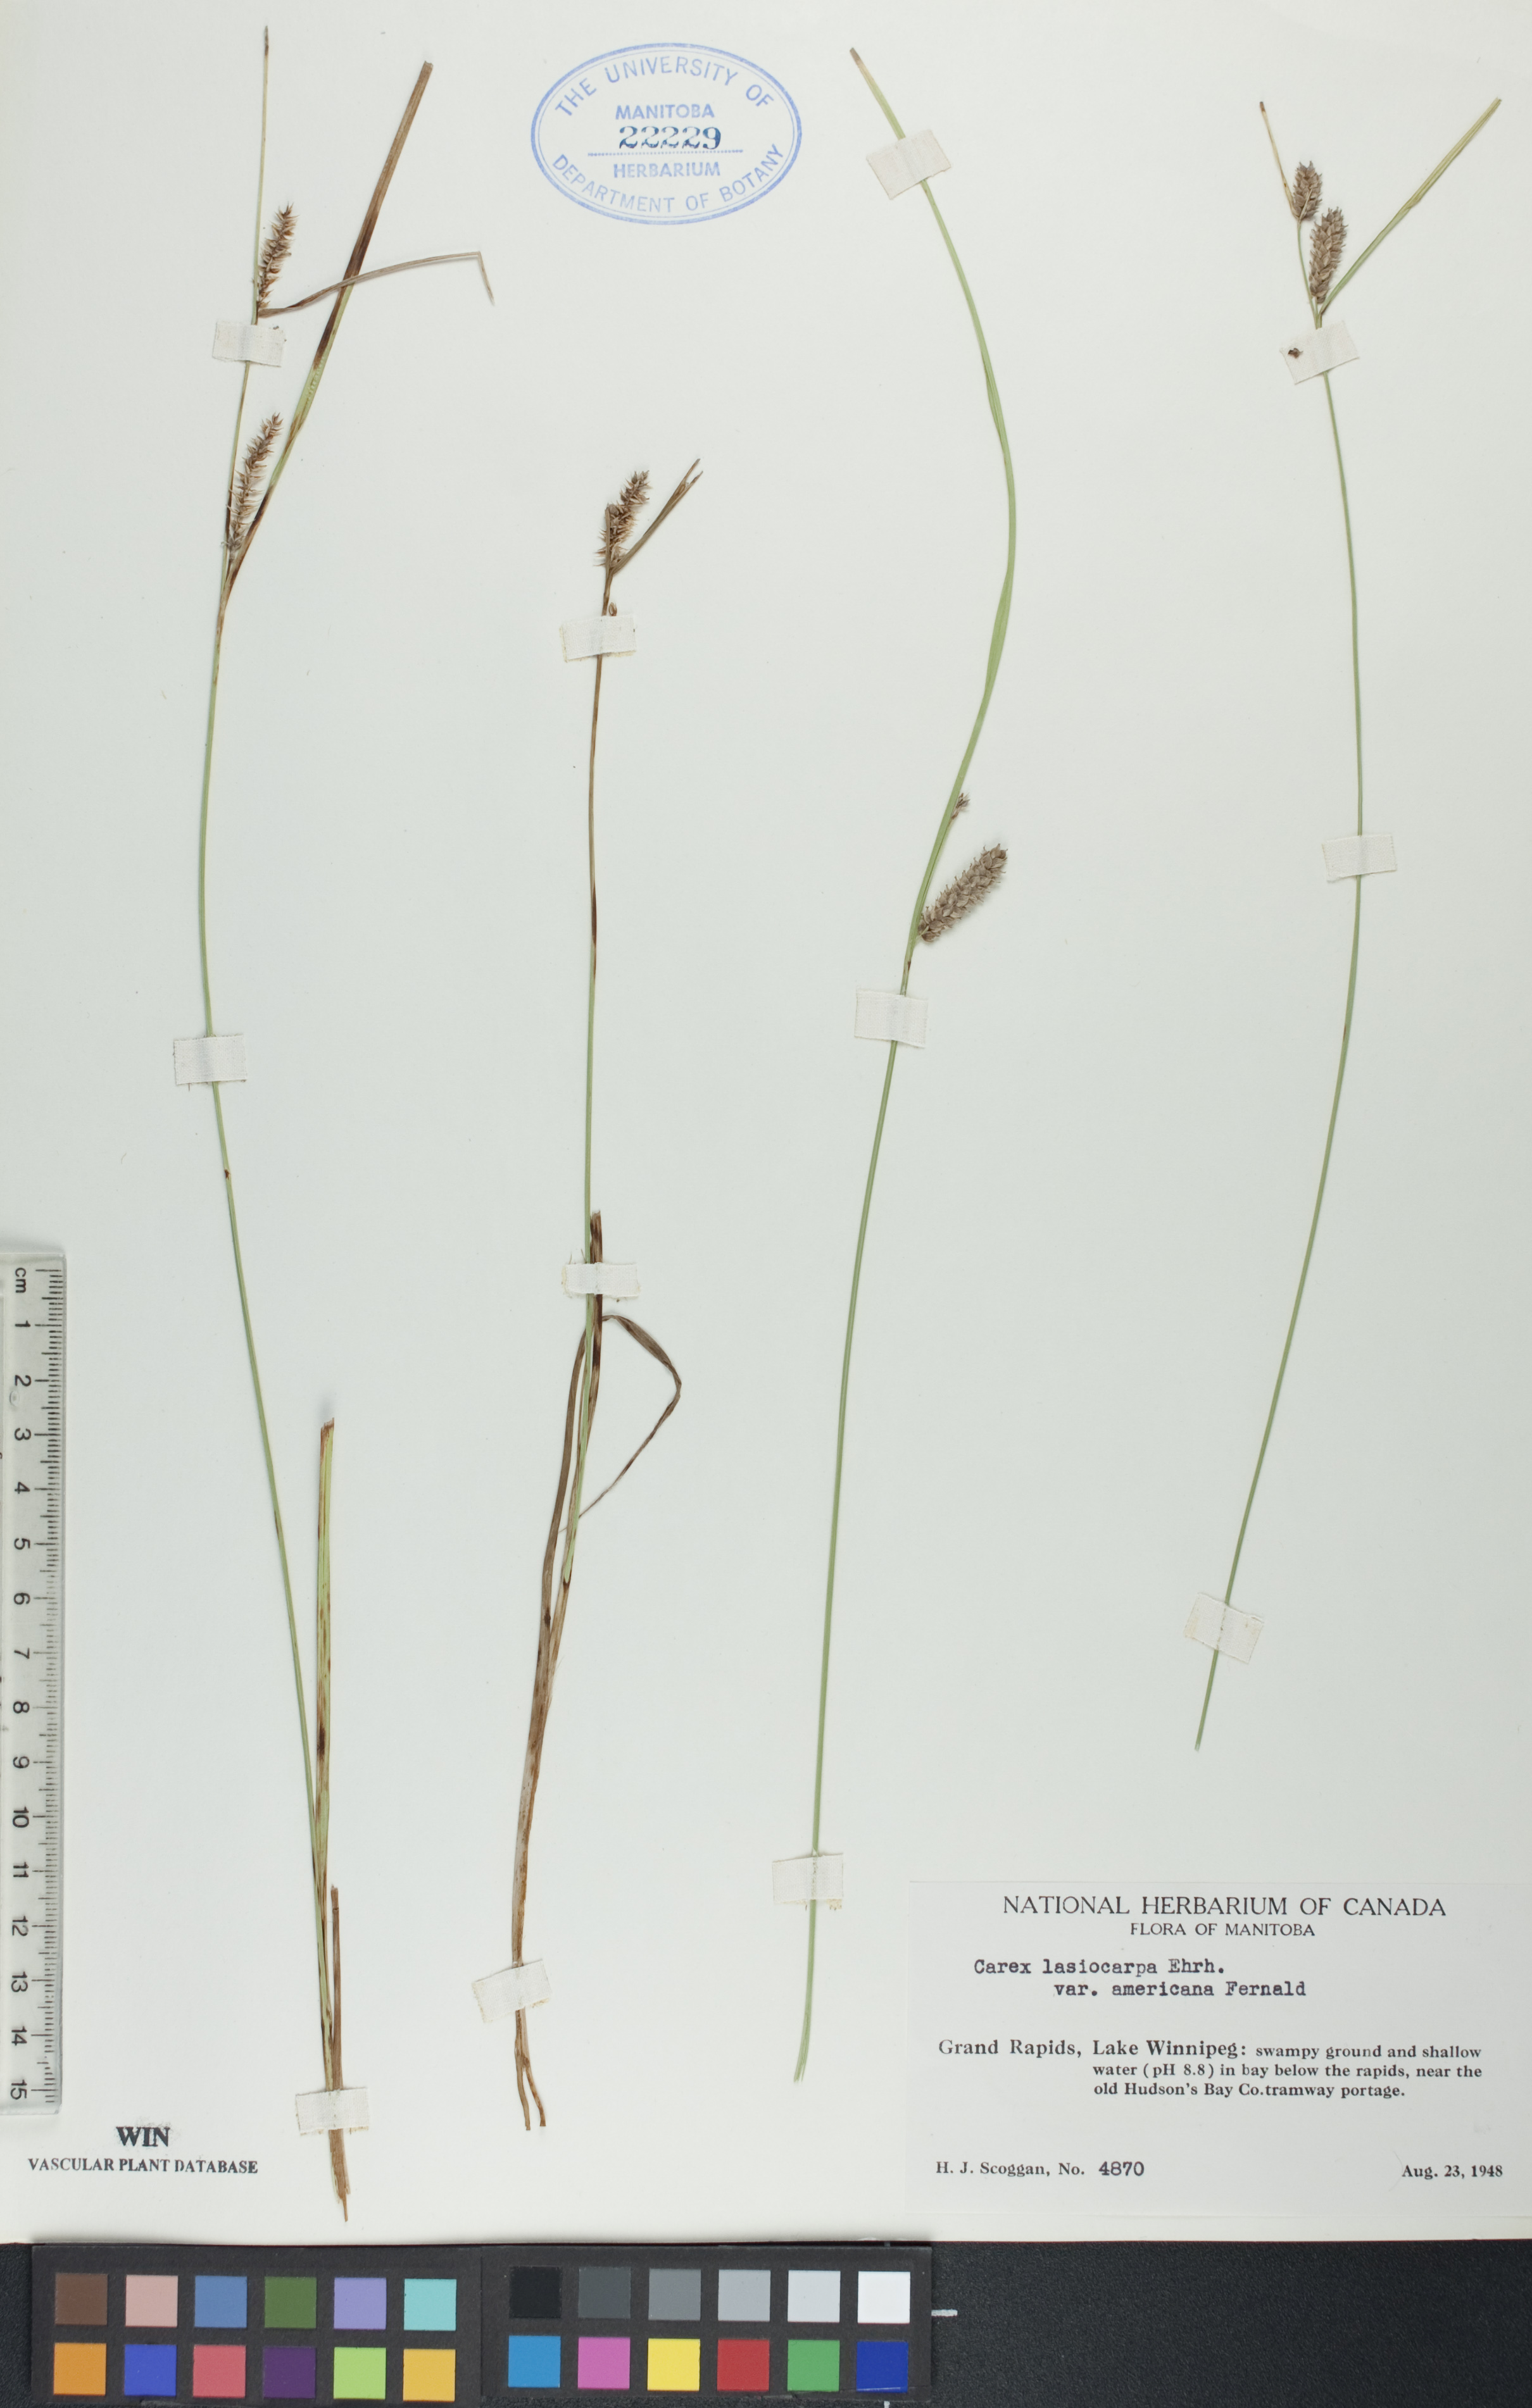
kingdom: Plantae
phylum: Tracheophyta
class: Liliopsida
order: Poales
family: Cyperaceae
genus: Carex
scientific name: Carex lasiocarpa
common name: Slender sedge
